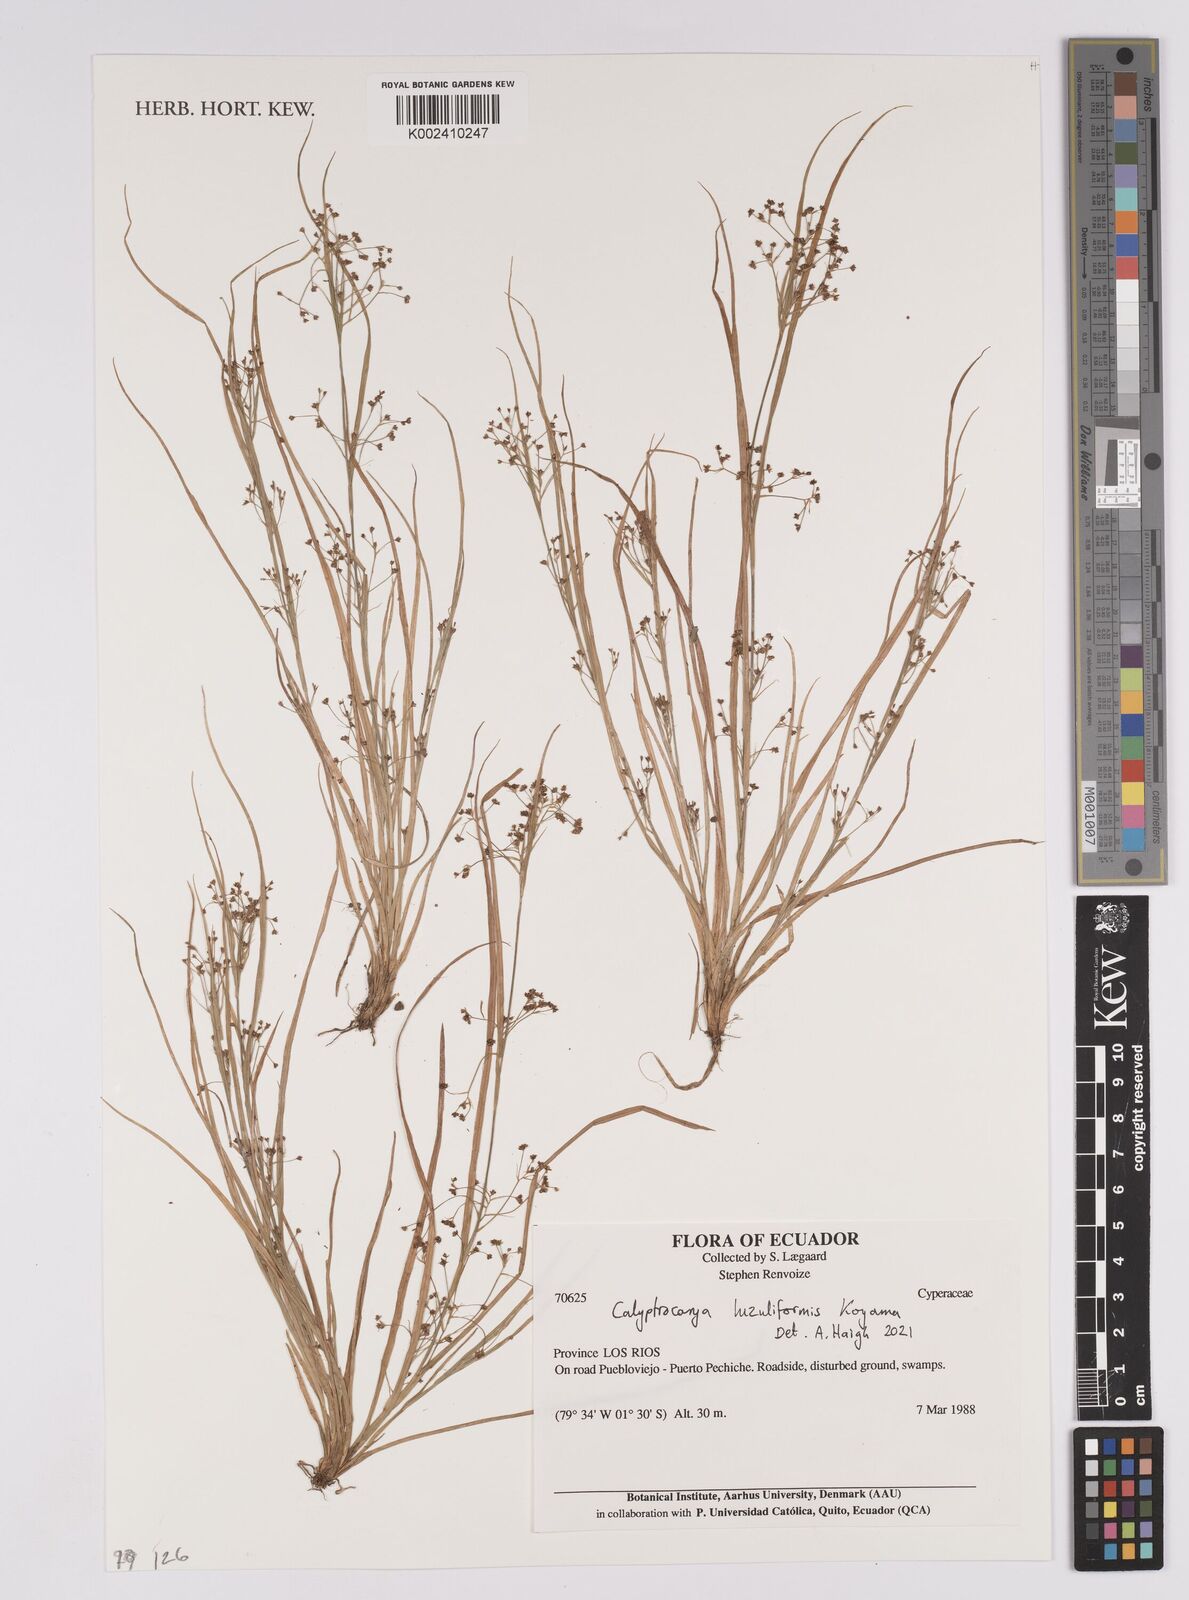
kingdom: Plantae
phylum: Tracheophyta
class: Liliopsida
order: Poales
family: Cyperaceae
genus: Calyptrocarya
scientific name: Calyptrocarya luzuliformis
